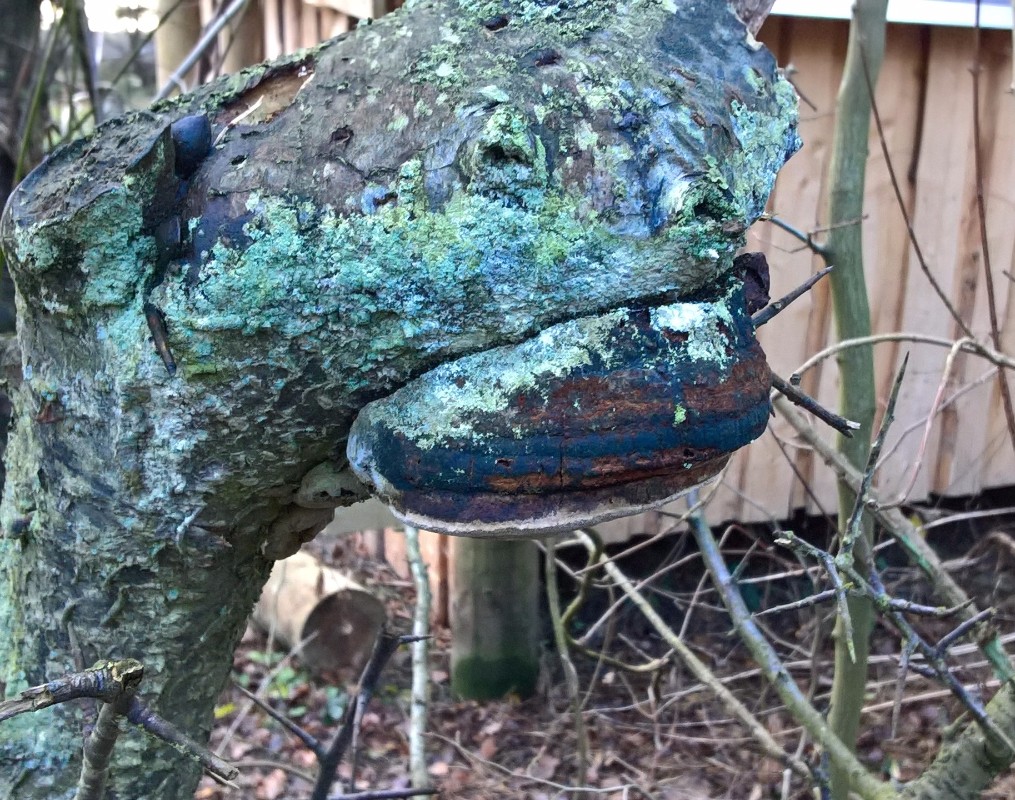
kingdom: Fungi
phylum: Basidiomycota
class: Agaricomycetes
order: Hymenochaetales
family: Hymenochaetaceae
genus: Phellinus
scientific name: Phellinus pomaceus
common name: blomme-ildporesvamp
